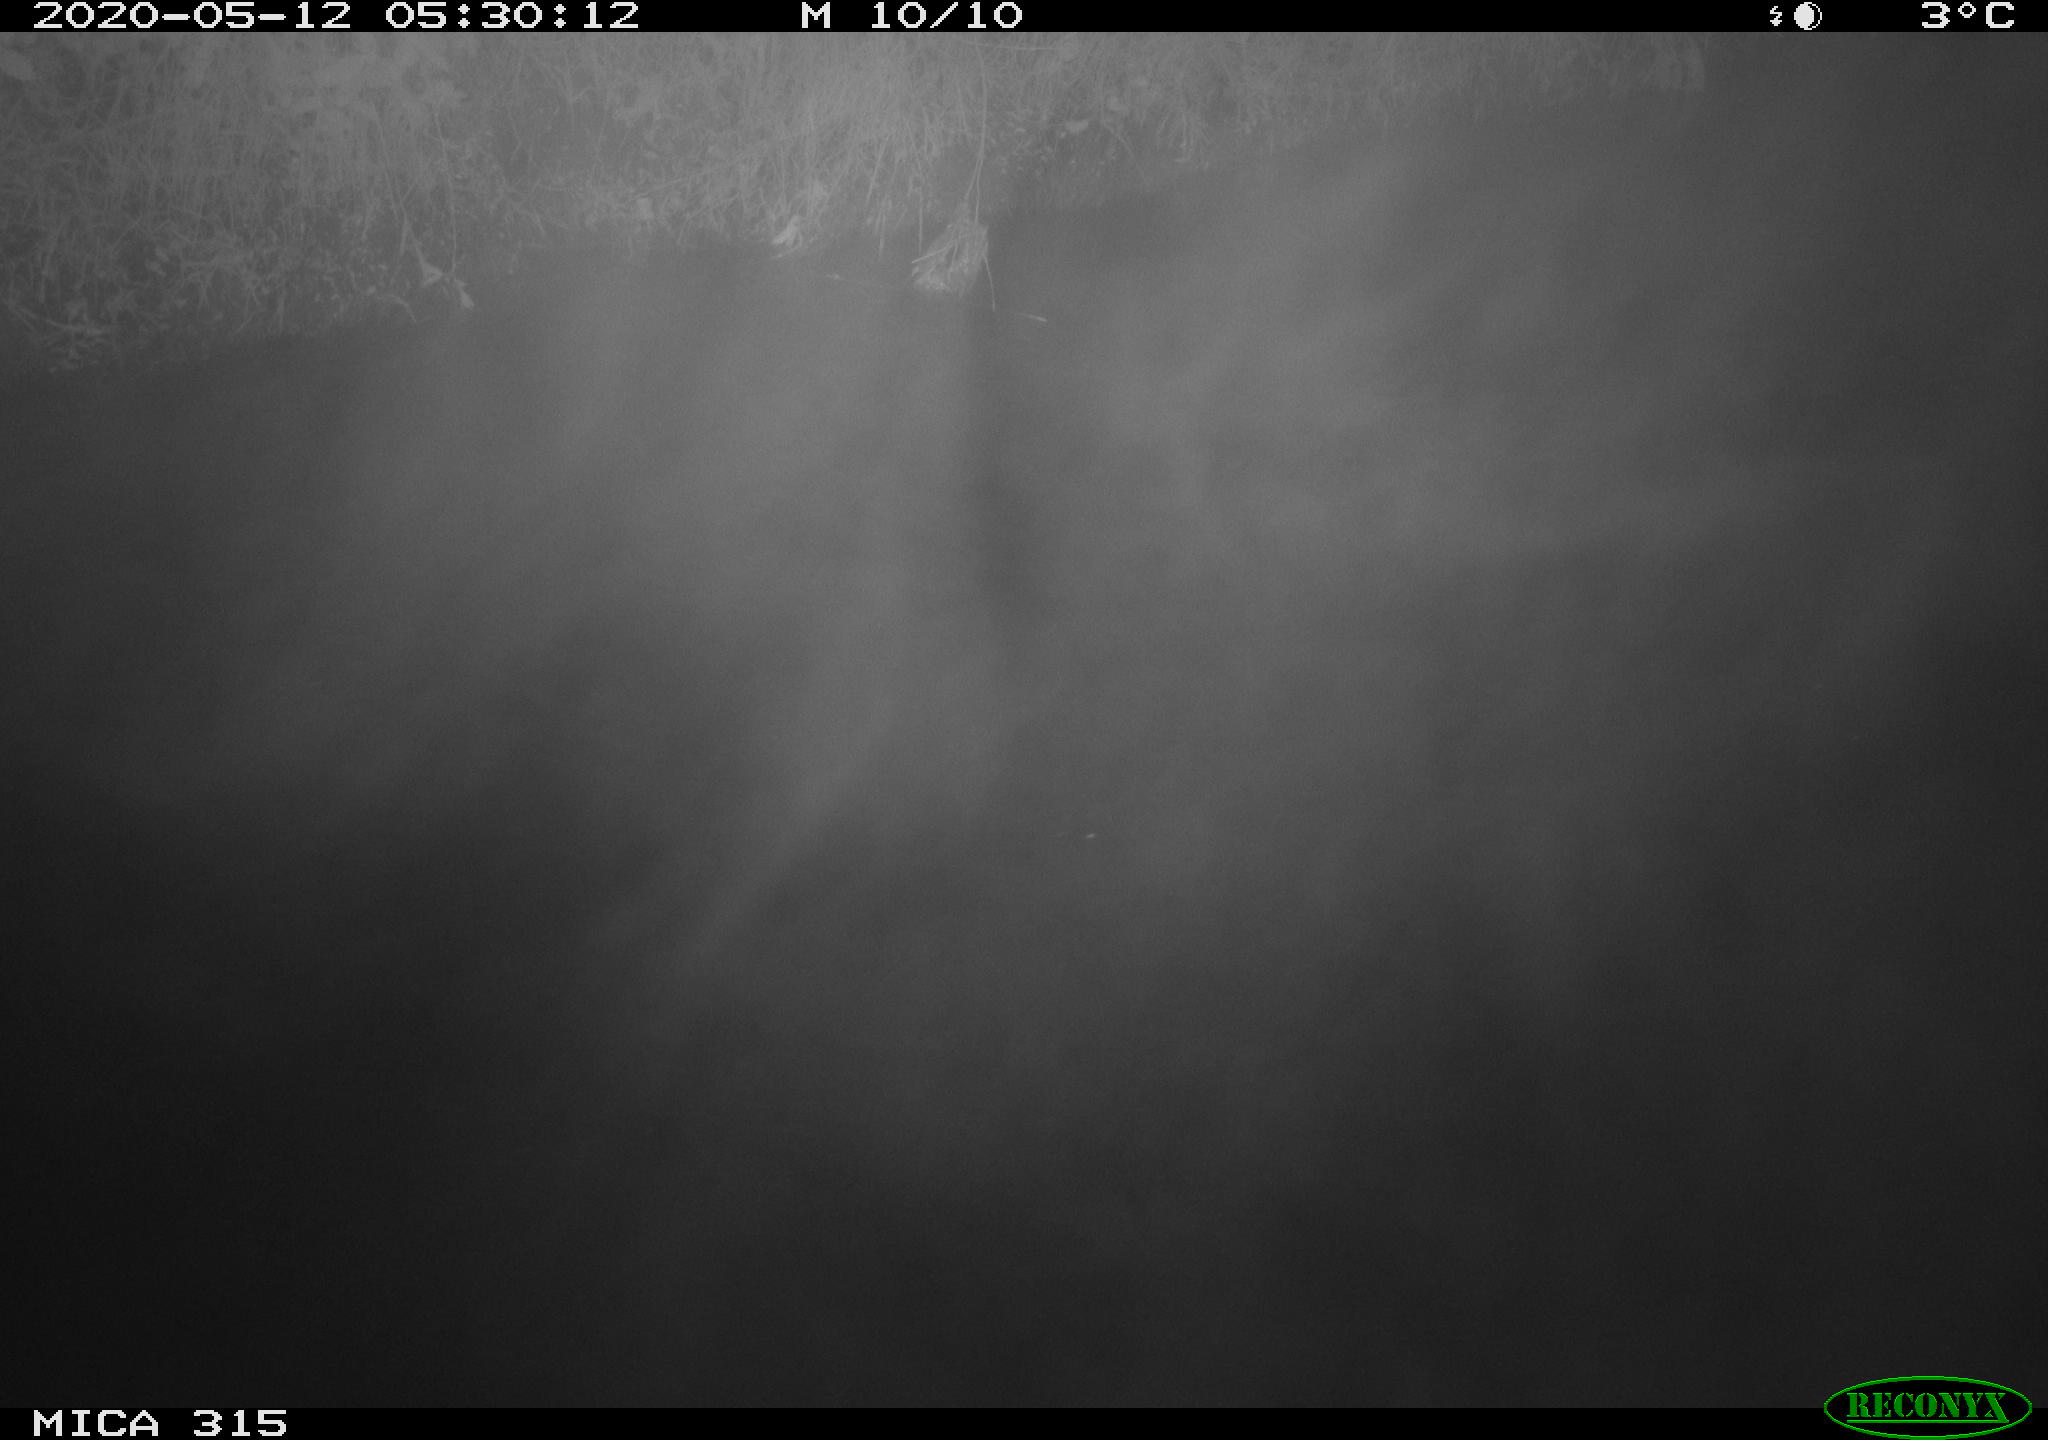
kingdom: Animalia
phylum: Chordata
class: Aves
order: Anseriformes
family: Anatidae
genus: Anas
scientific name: Anas platyrhynchos
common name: Mallard
